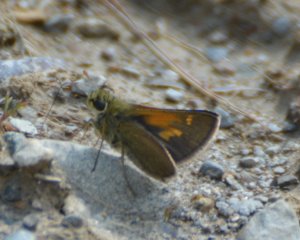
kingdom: Animalia
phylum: Arthropoda
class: Insecta
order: Lepidoptera
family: Hesperiidae
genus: Polites
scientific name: Polites themistocles
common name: Tawny-edged Skipper
